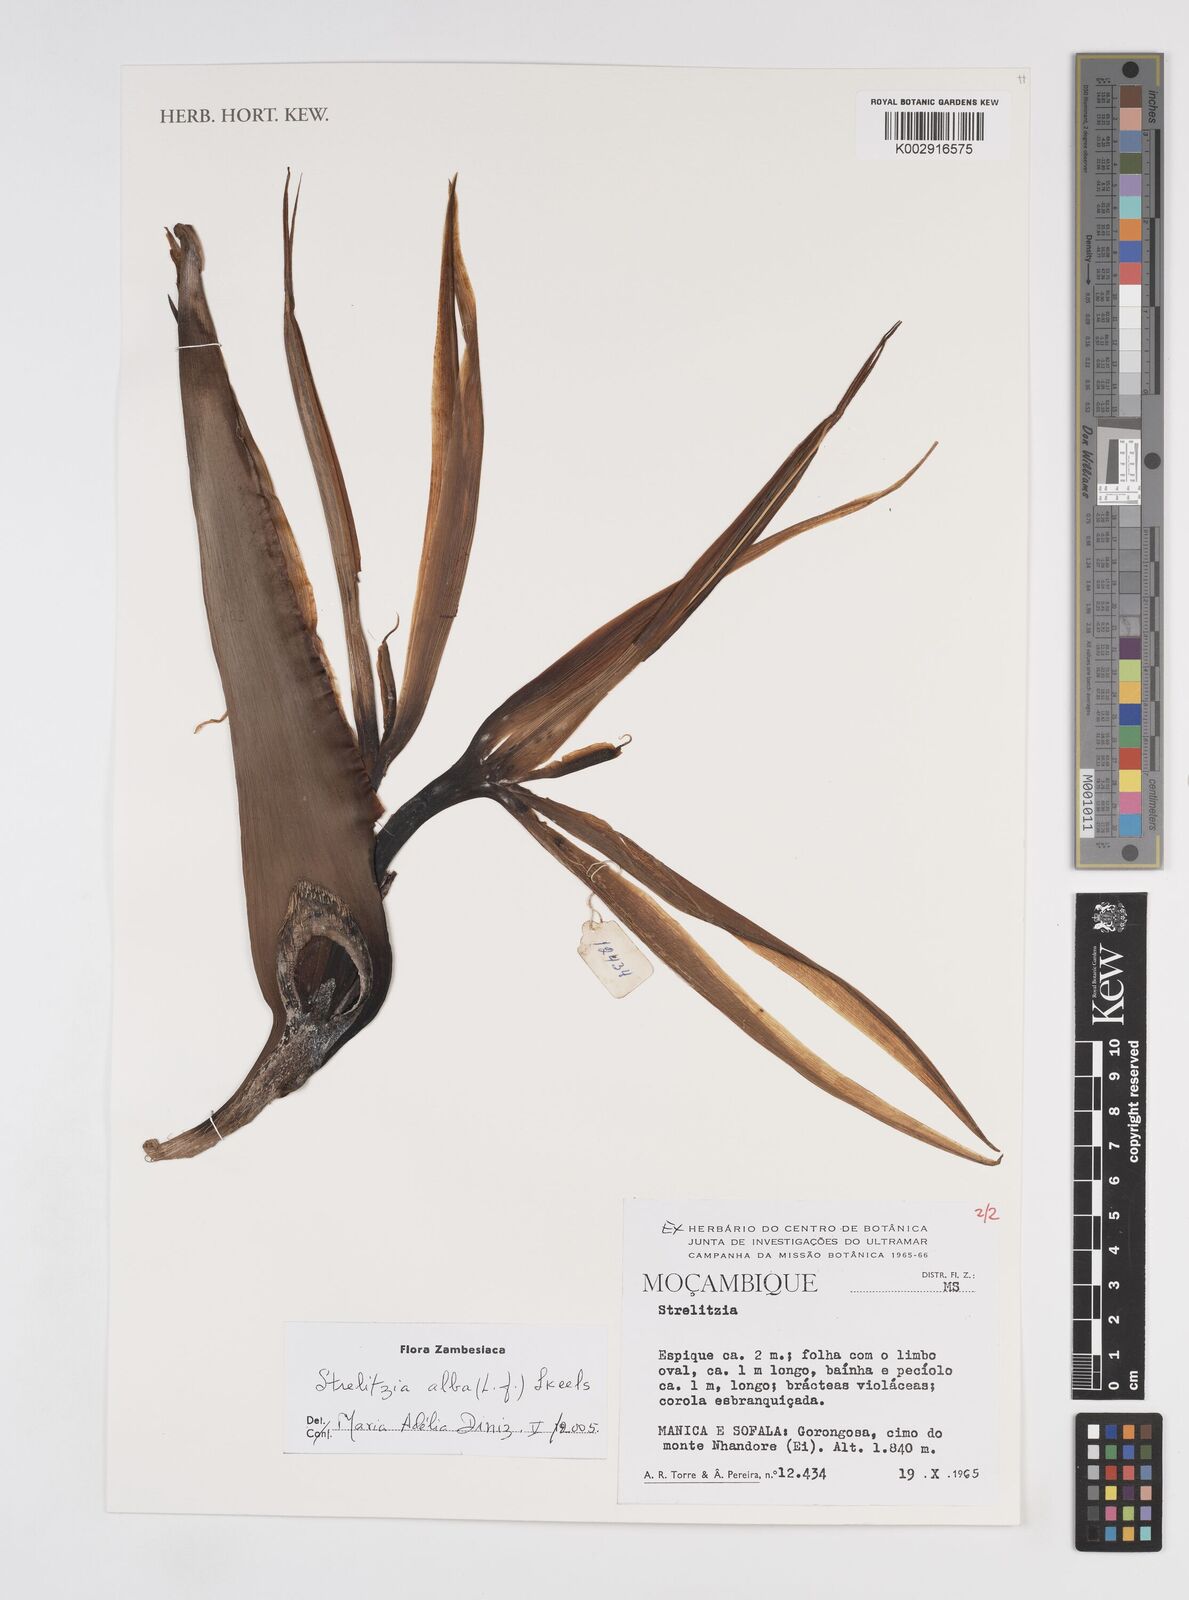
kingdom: Plantae
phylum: Tracheophyta
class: Liliopsida
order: Zingiberales
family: Strelitziaceae
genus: Strelitzia
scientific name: Strelitzia alba
